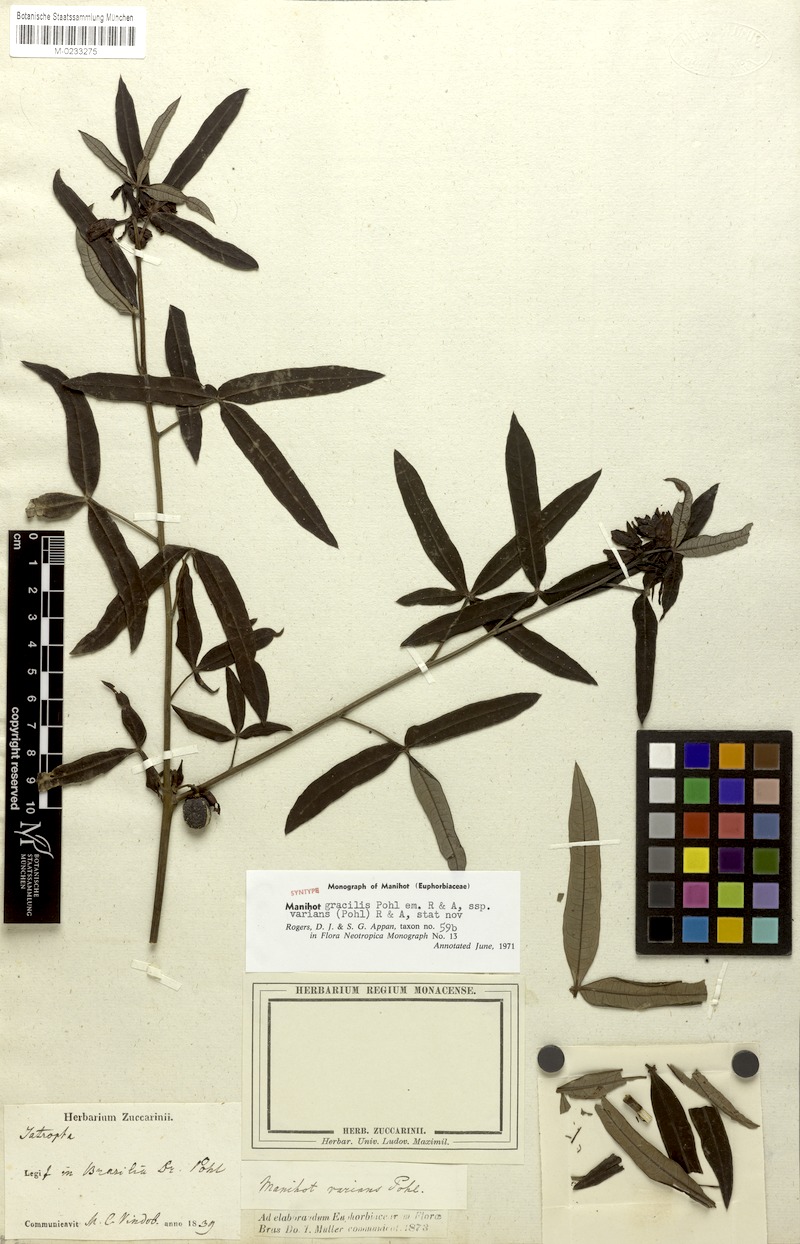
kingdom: Plantae
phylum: Tracheophyta
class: Magnoliopsida
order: Malpighiales
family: Euphorbiaceae
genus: Manihot
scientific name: Manihot gracilis
